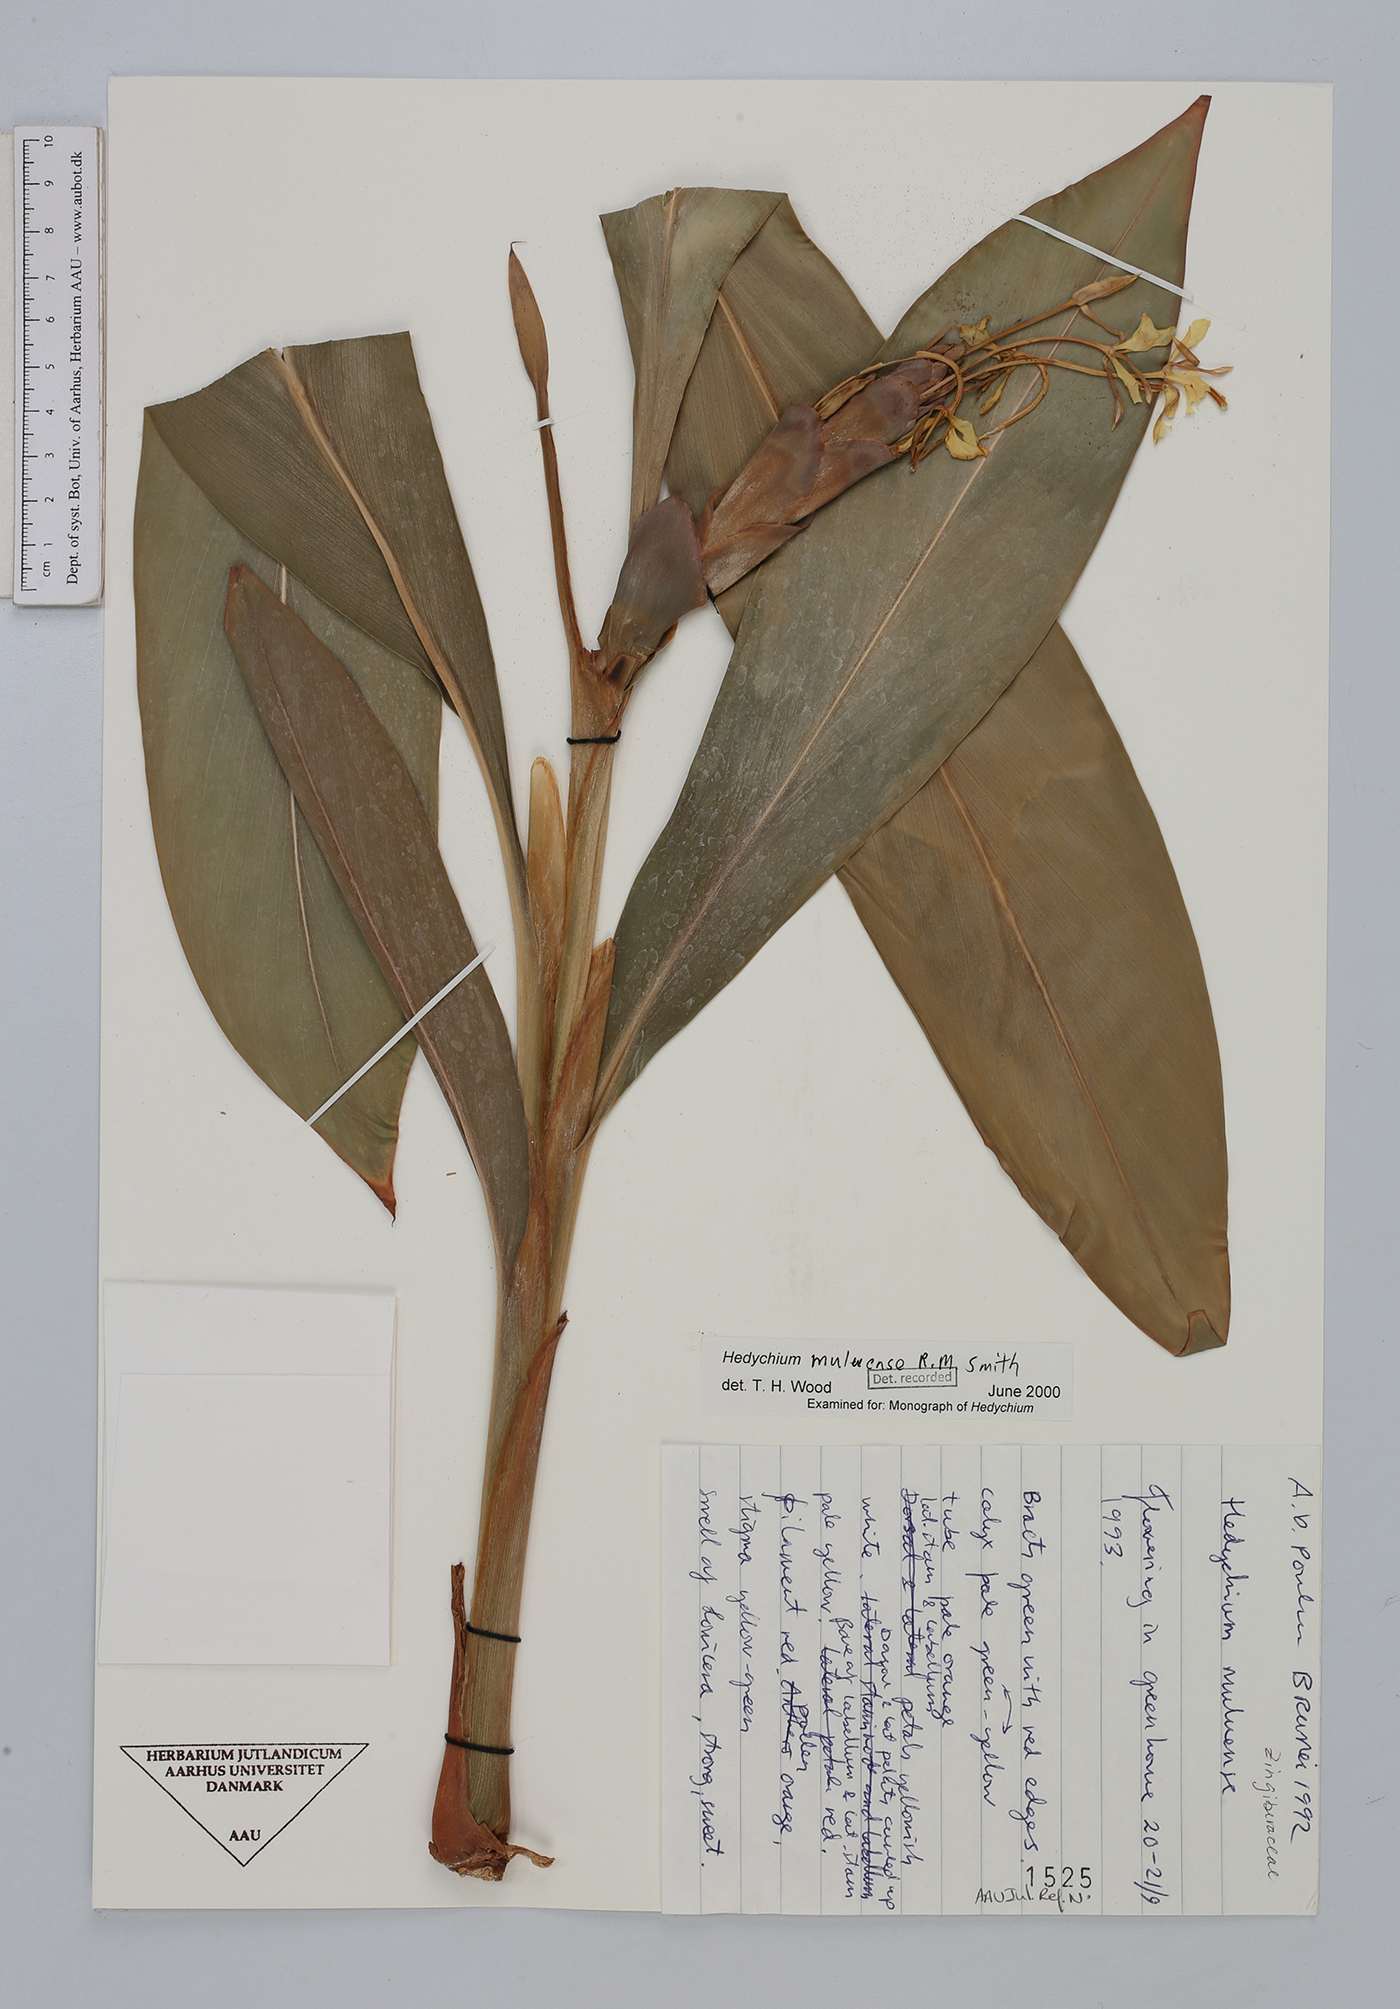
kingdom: Plantae
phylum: Tracheophyta
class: Liliopsida
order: Zingiberales
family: Zingiberaceae
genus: Hedychium
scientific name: Hedychium muluense
